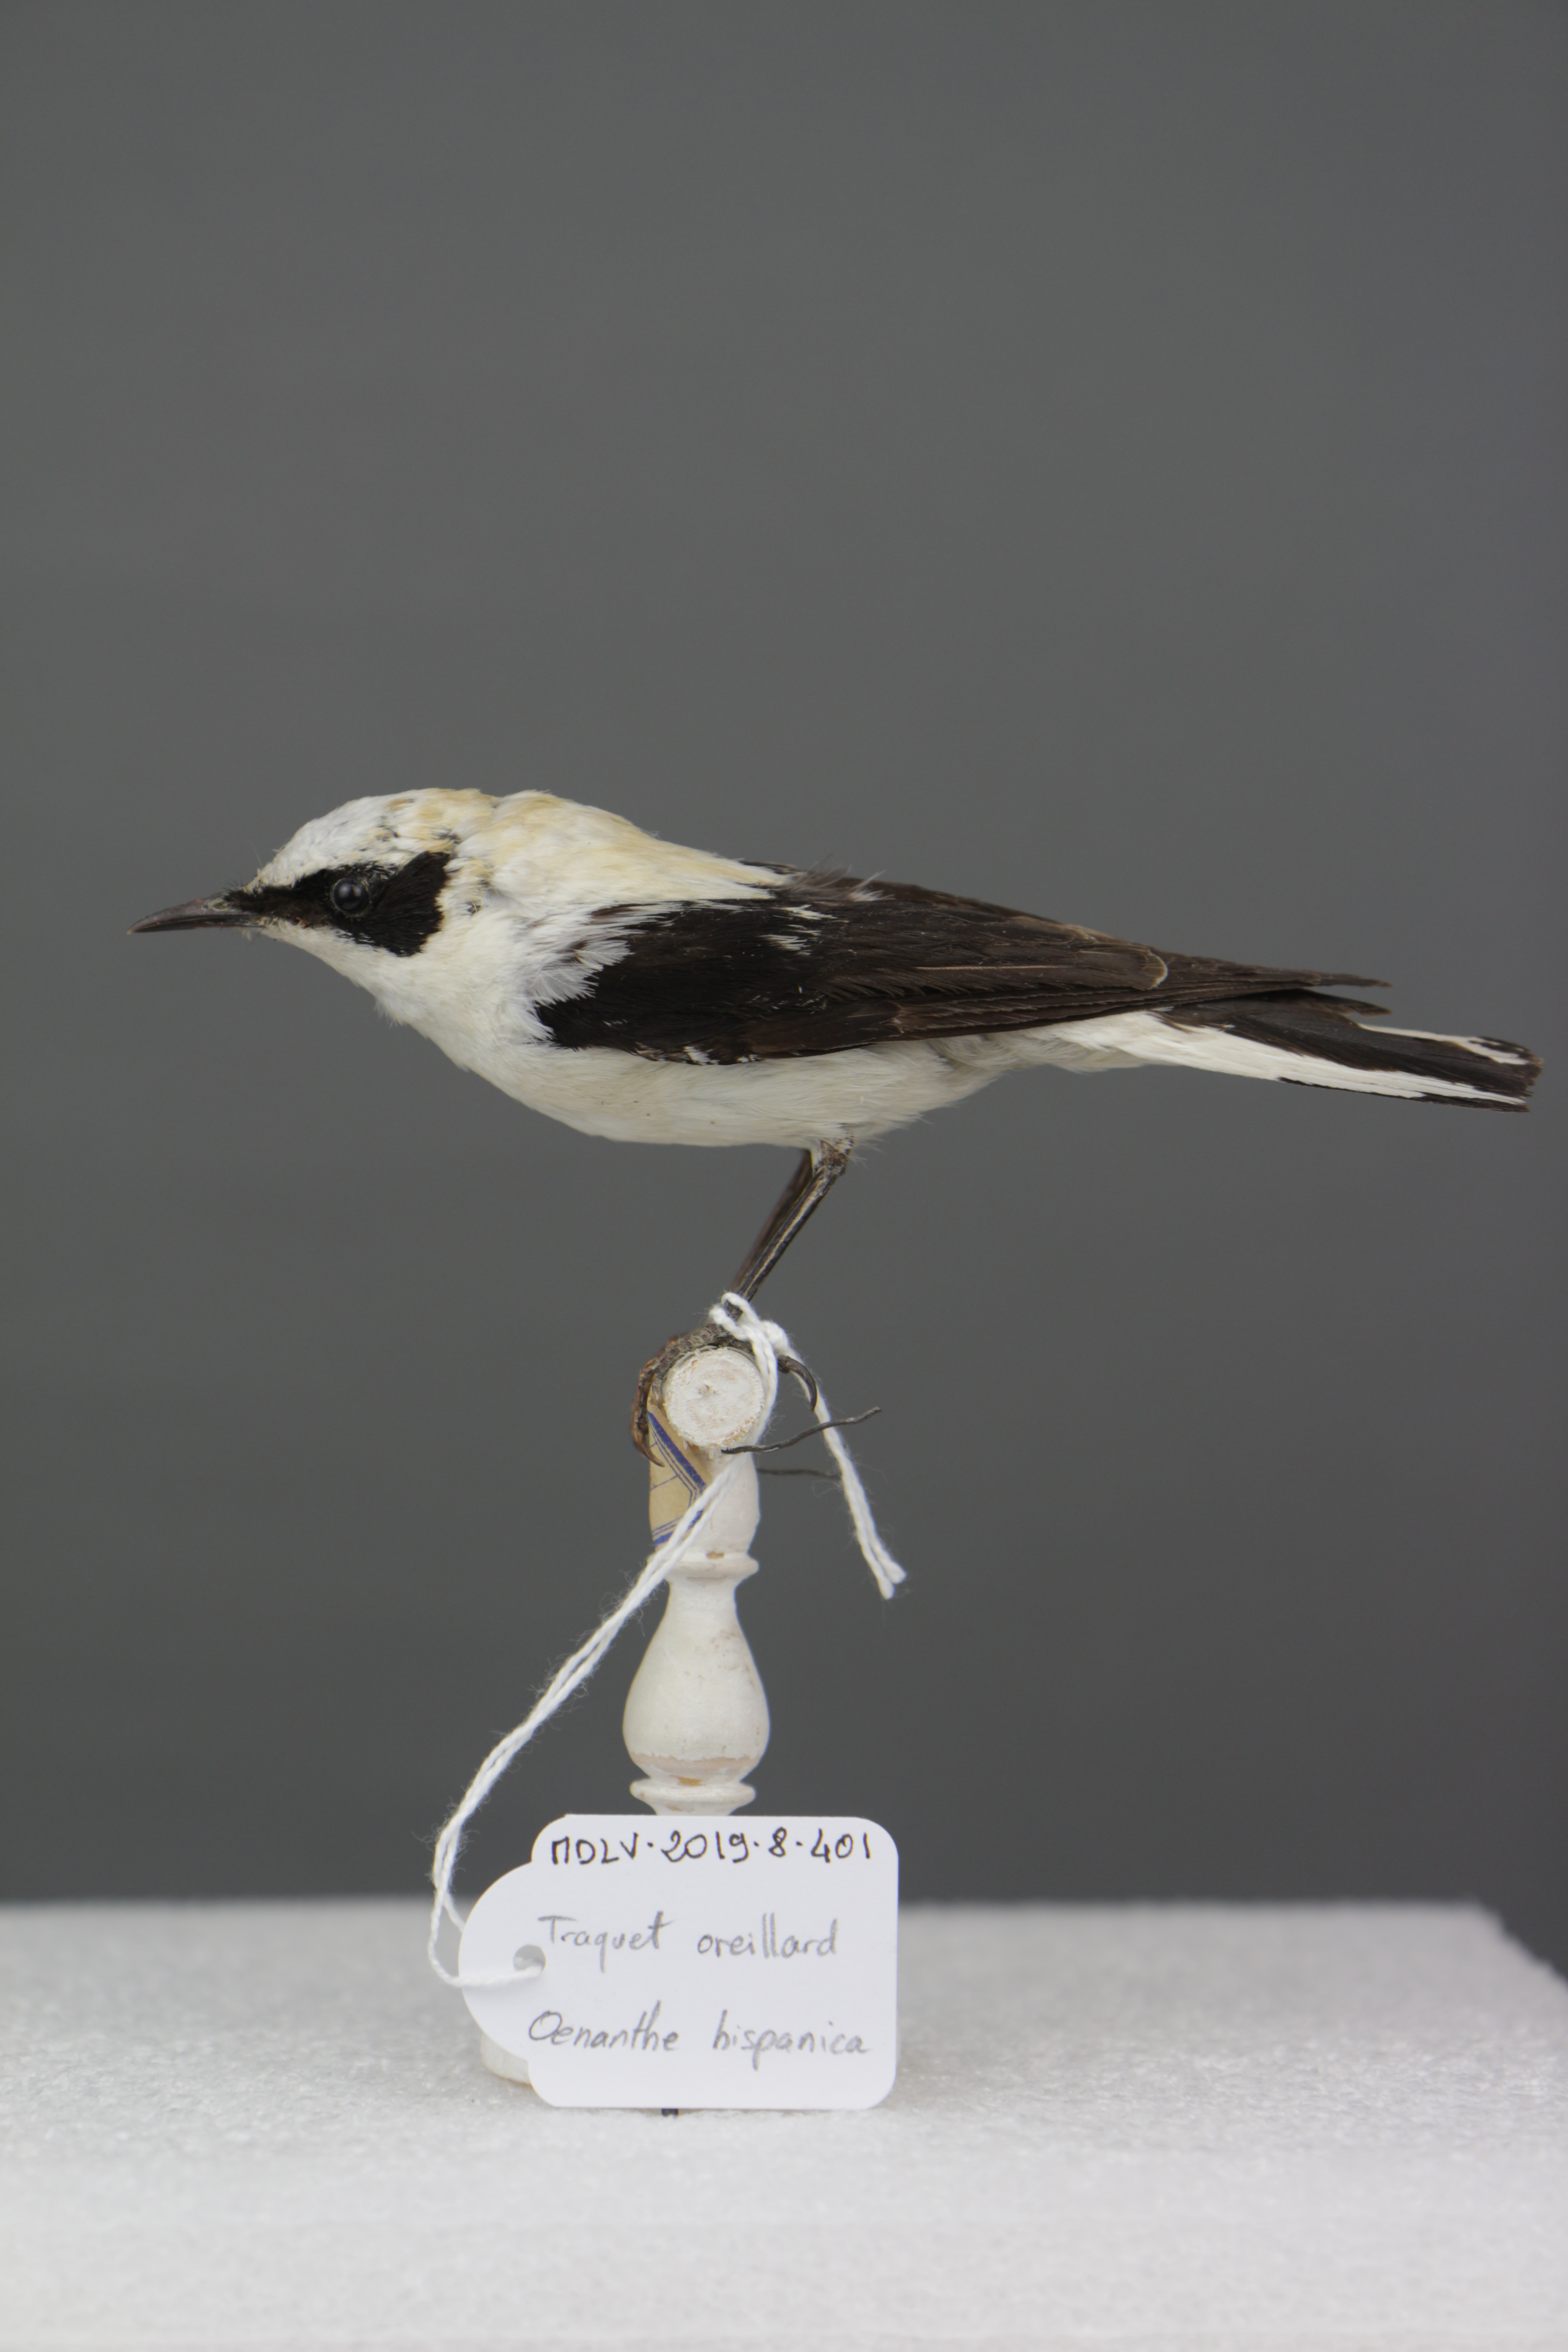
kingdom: Animalia
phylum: Chordata
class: Aves
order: Passeriformes
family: Muscicapidae
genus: Oenanthe
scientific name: Oenanthe hispanica
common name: Black-eared wheatear
